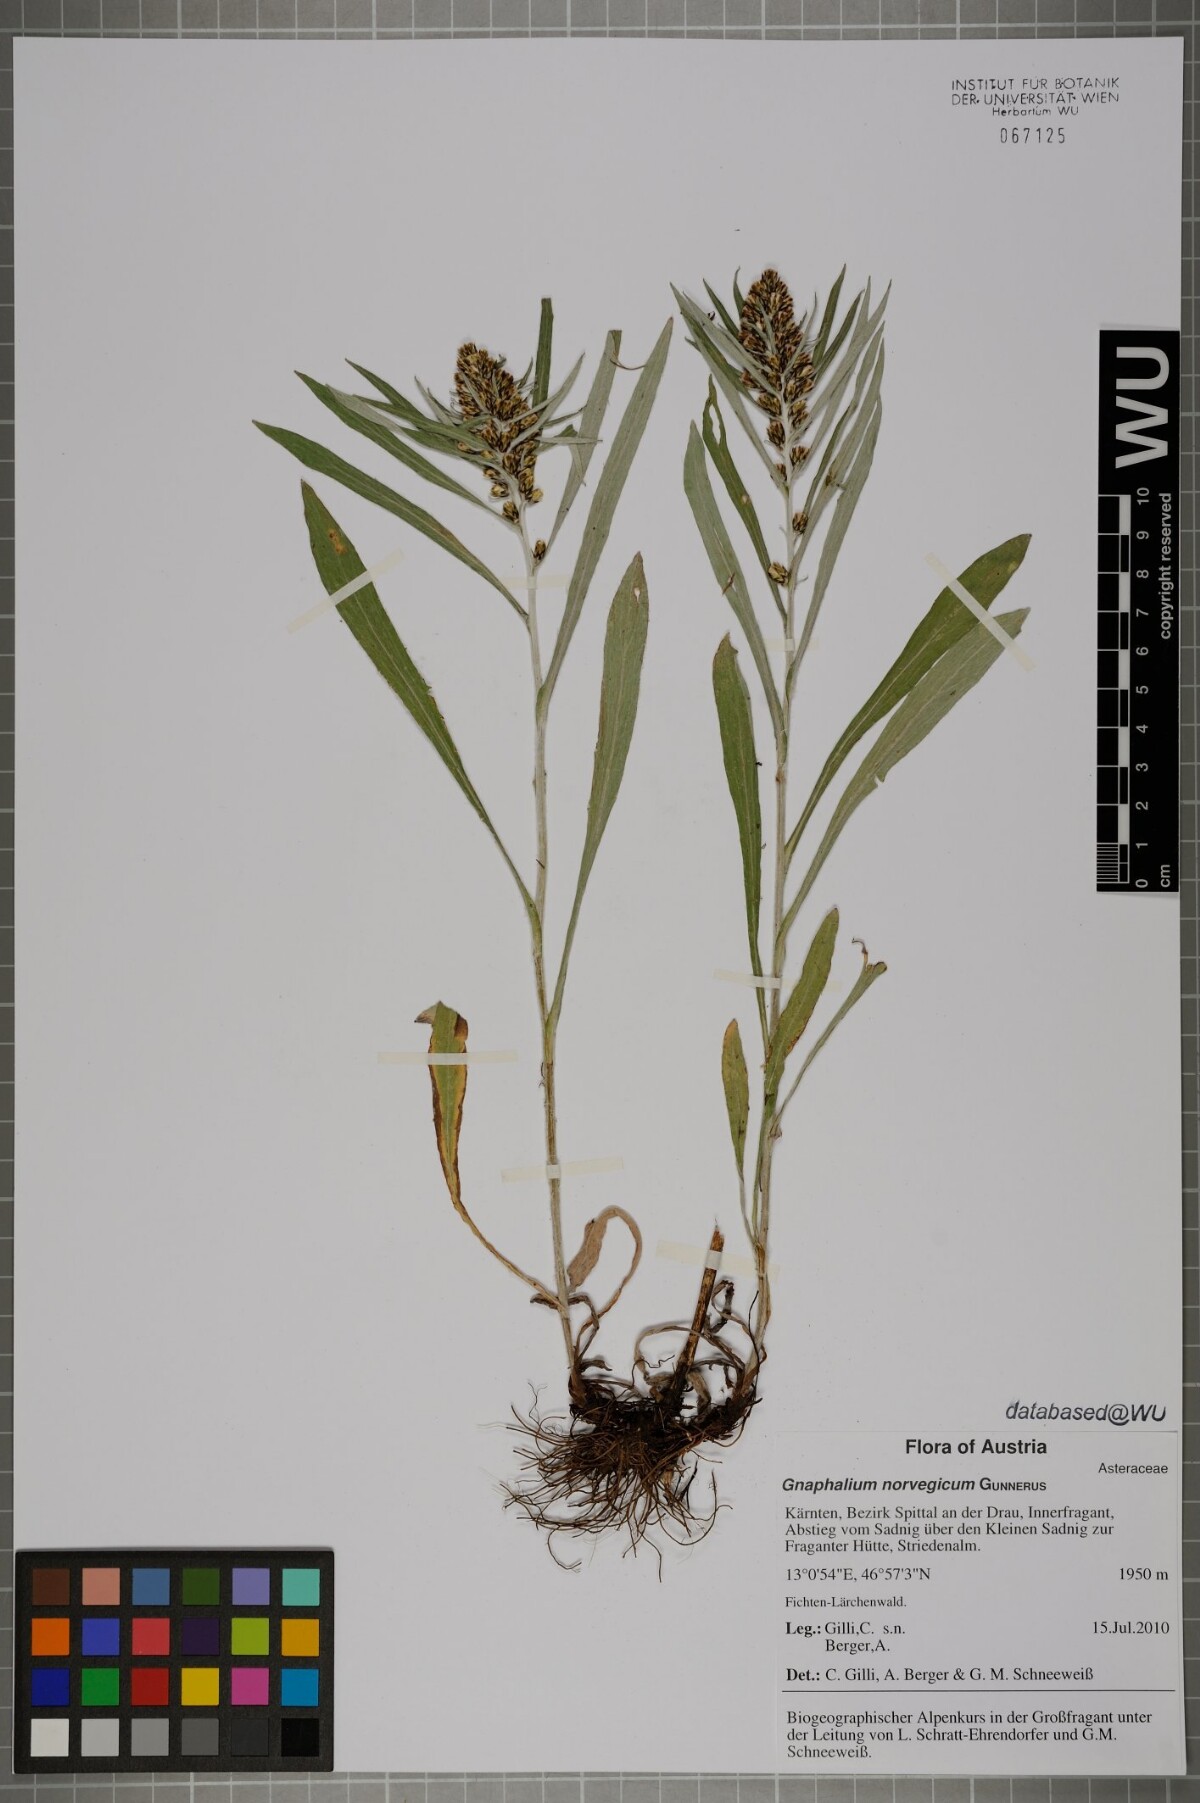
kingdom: Plantae
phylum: Tracheophyta
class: Magnoliopsida
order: Asterales
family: Asteraceae
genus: Omalotheca
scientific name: Omalotheca norvegica
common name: Norwegian arctic-cudweed
